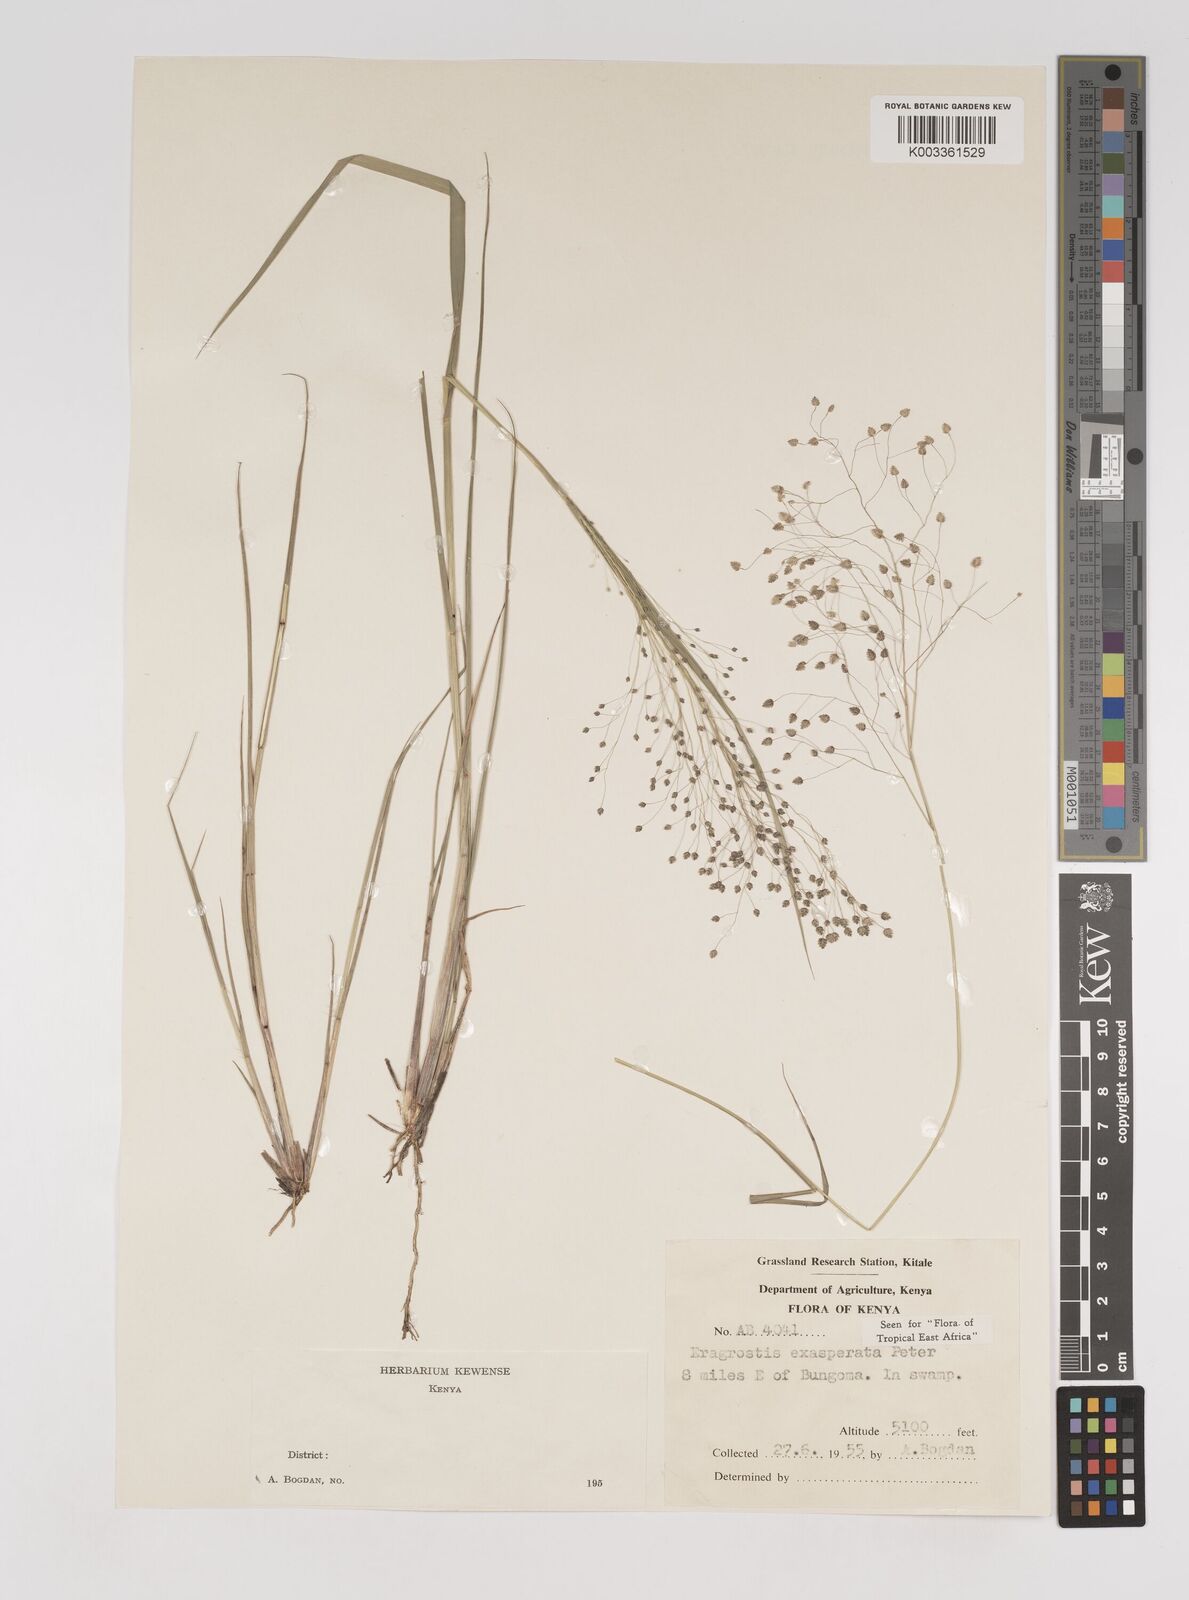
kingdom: Plantae
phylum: Tracheophyta
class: Liliopsida
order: Poales
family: Poaceae
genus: Eragrostis
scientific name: Eragrostis exasperata
